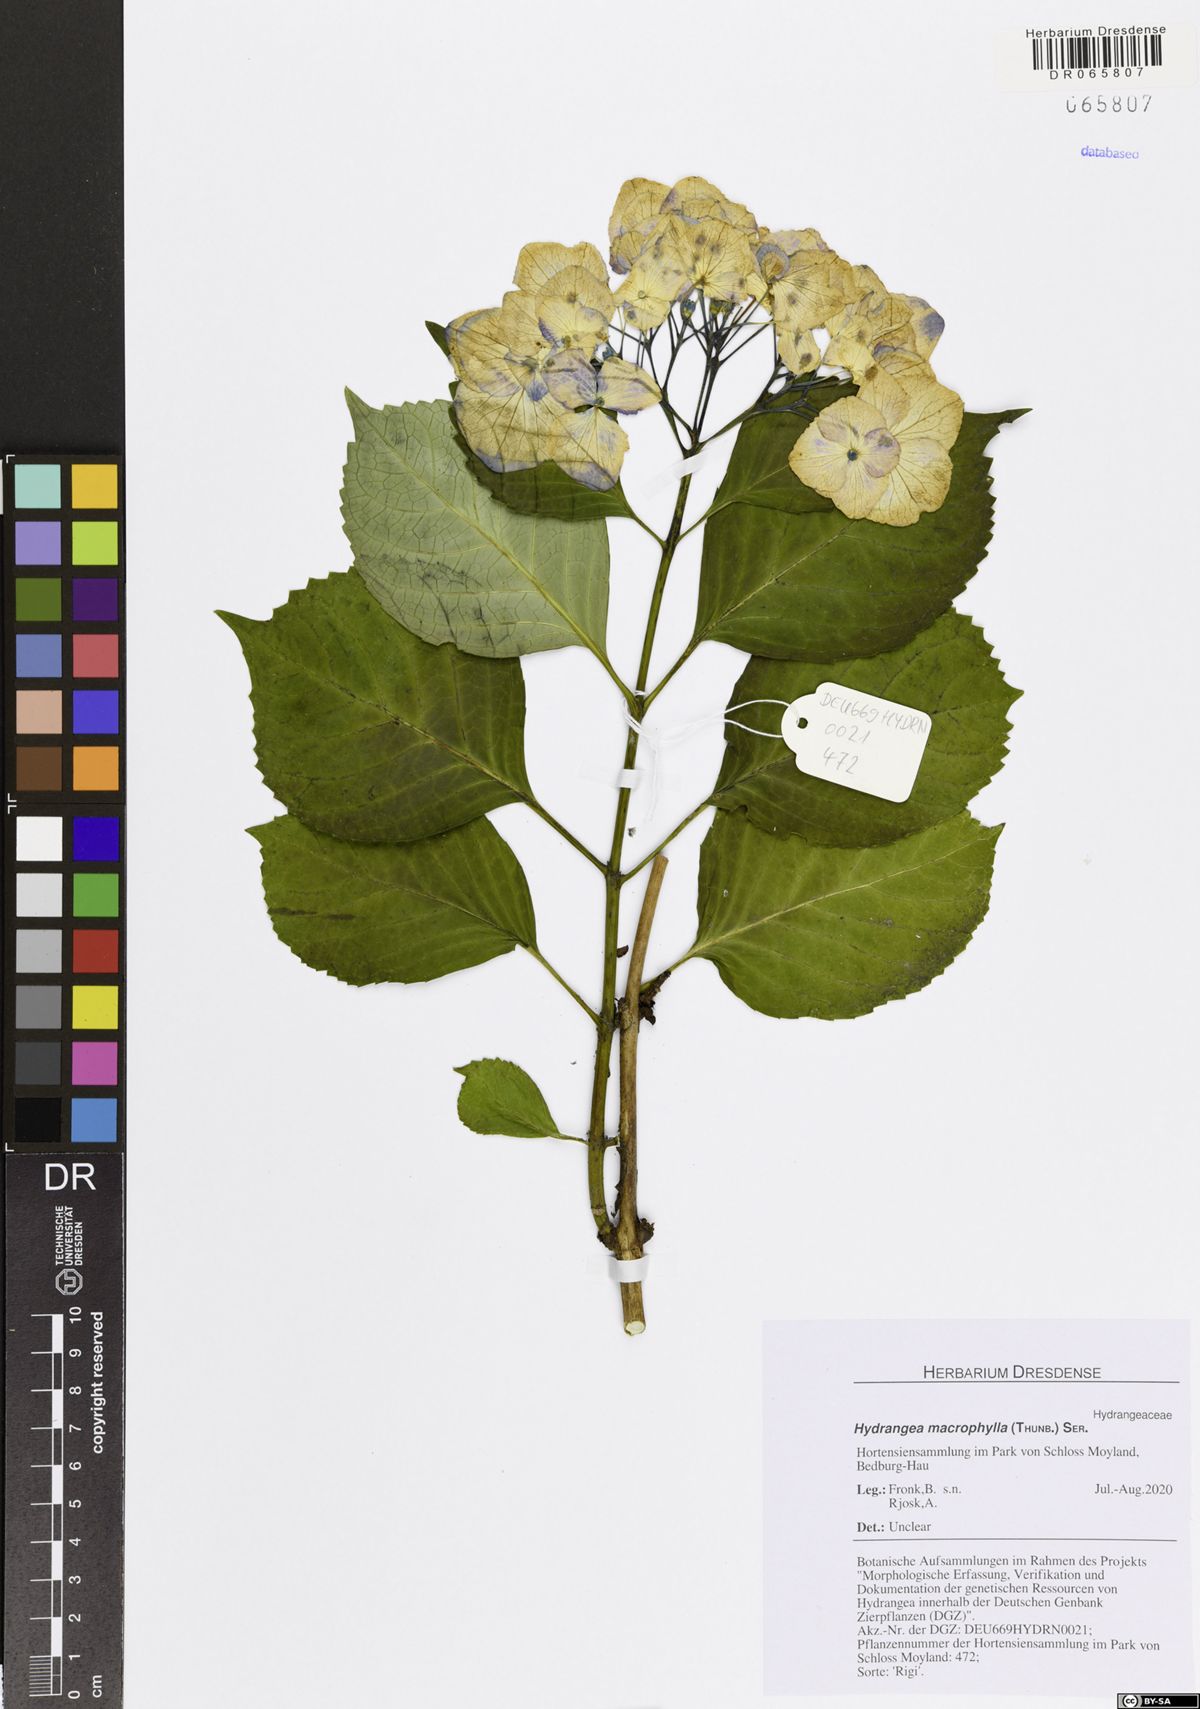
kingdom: Plantae
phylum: Tracheophyta
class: Magnoliopsida
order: Cornales
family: Hydrangeaceae
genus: Hydrangea
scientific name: Hydrangea macrophylla
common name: Hydrangea
